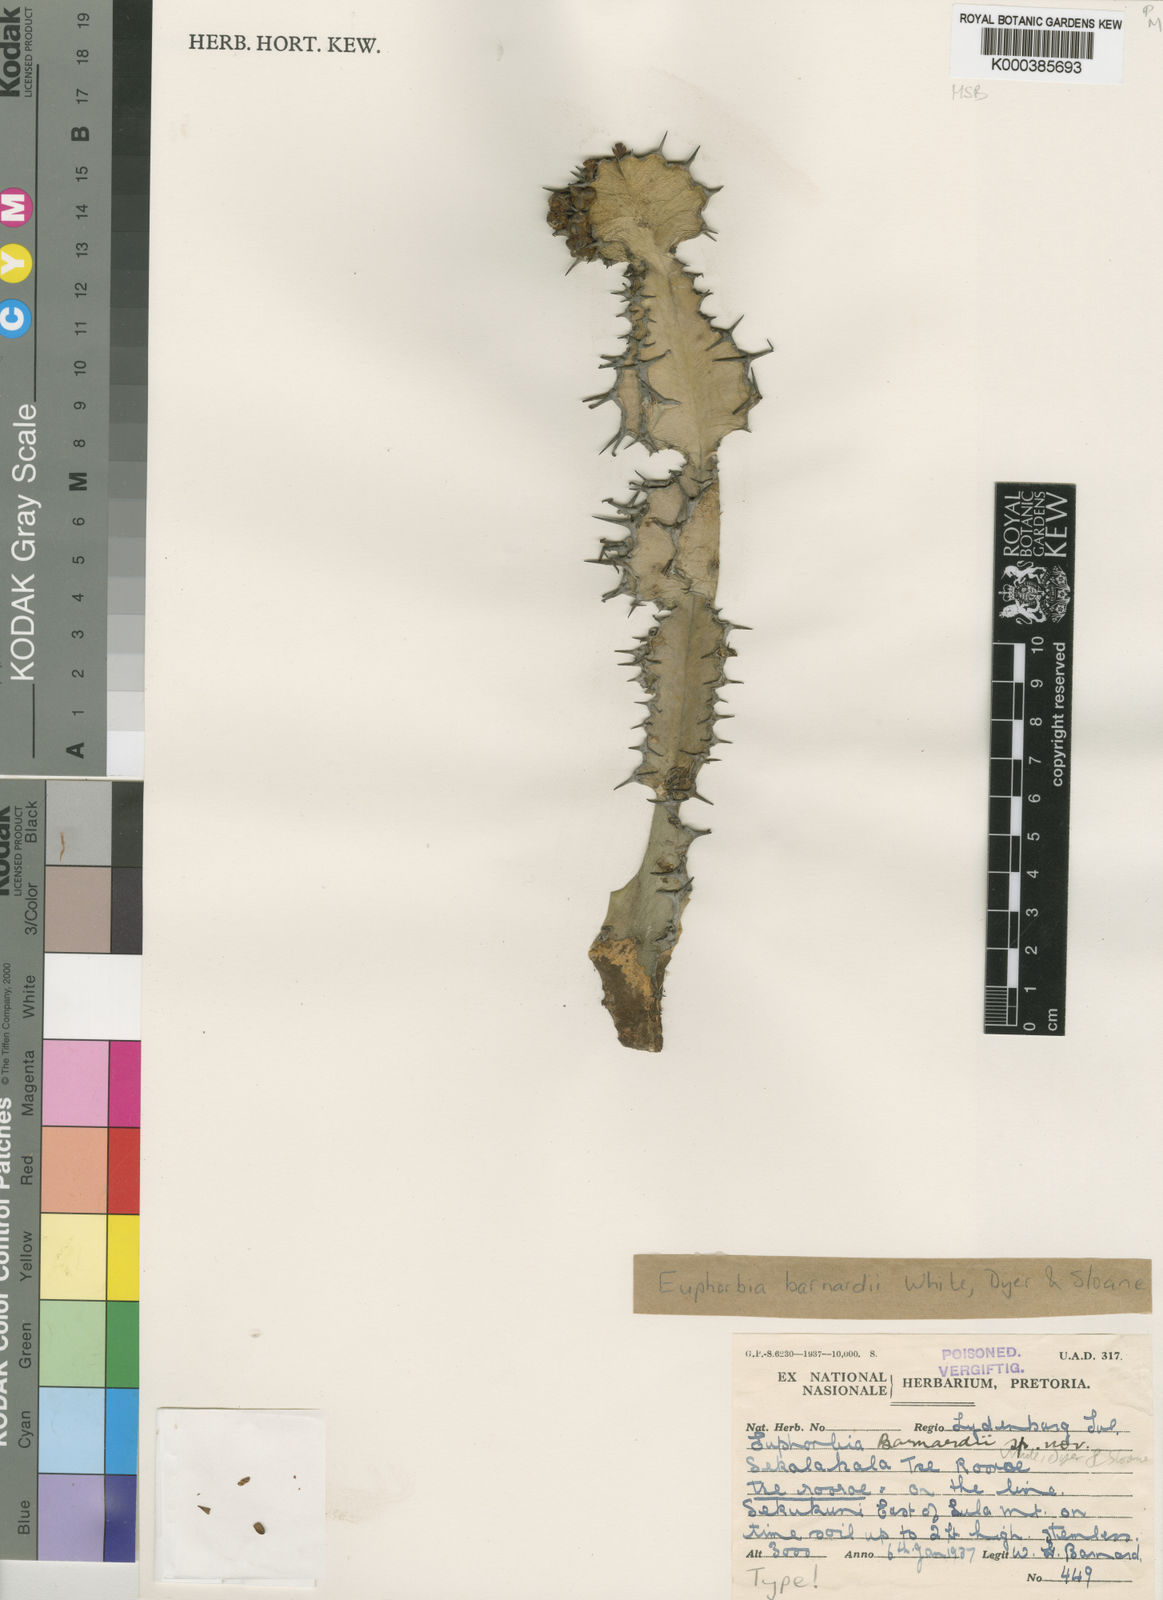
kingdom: Plantae
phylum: Tracheophyta
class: Magnoliopsida
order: Malpighiales
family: Euphorbiaceae
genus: Euphorbia
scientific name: Euphorbia barnardii
